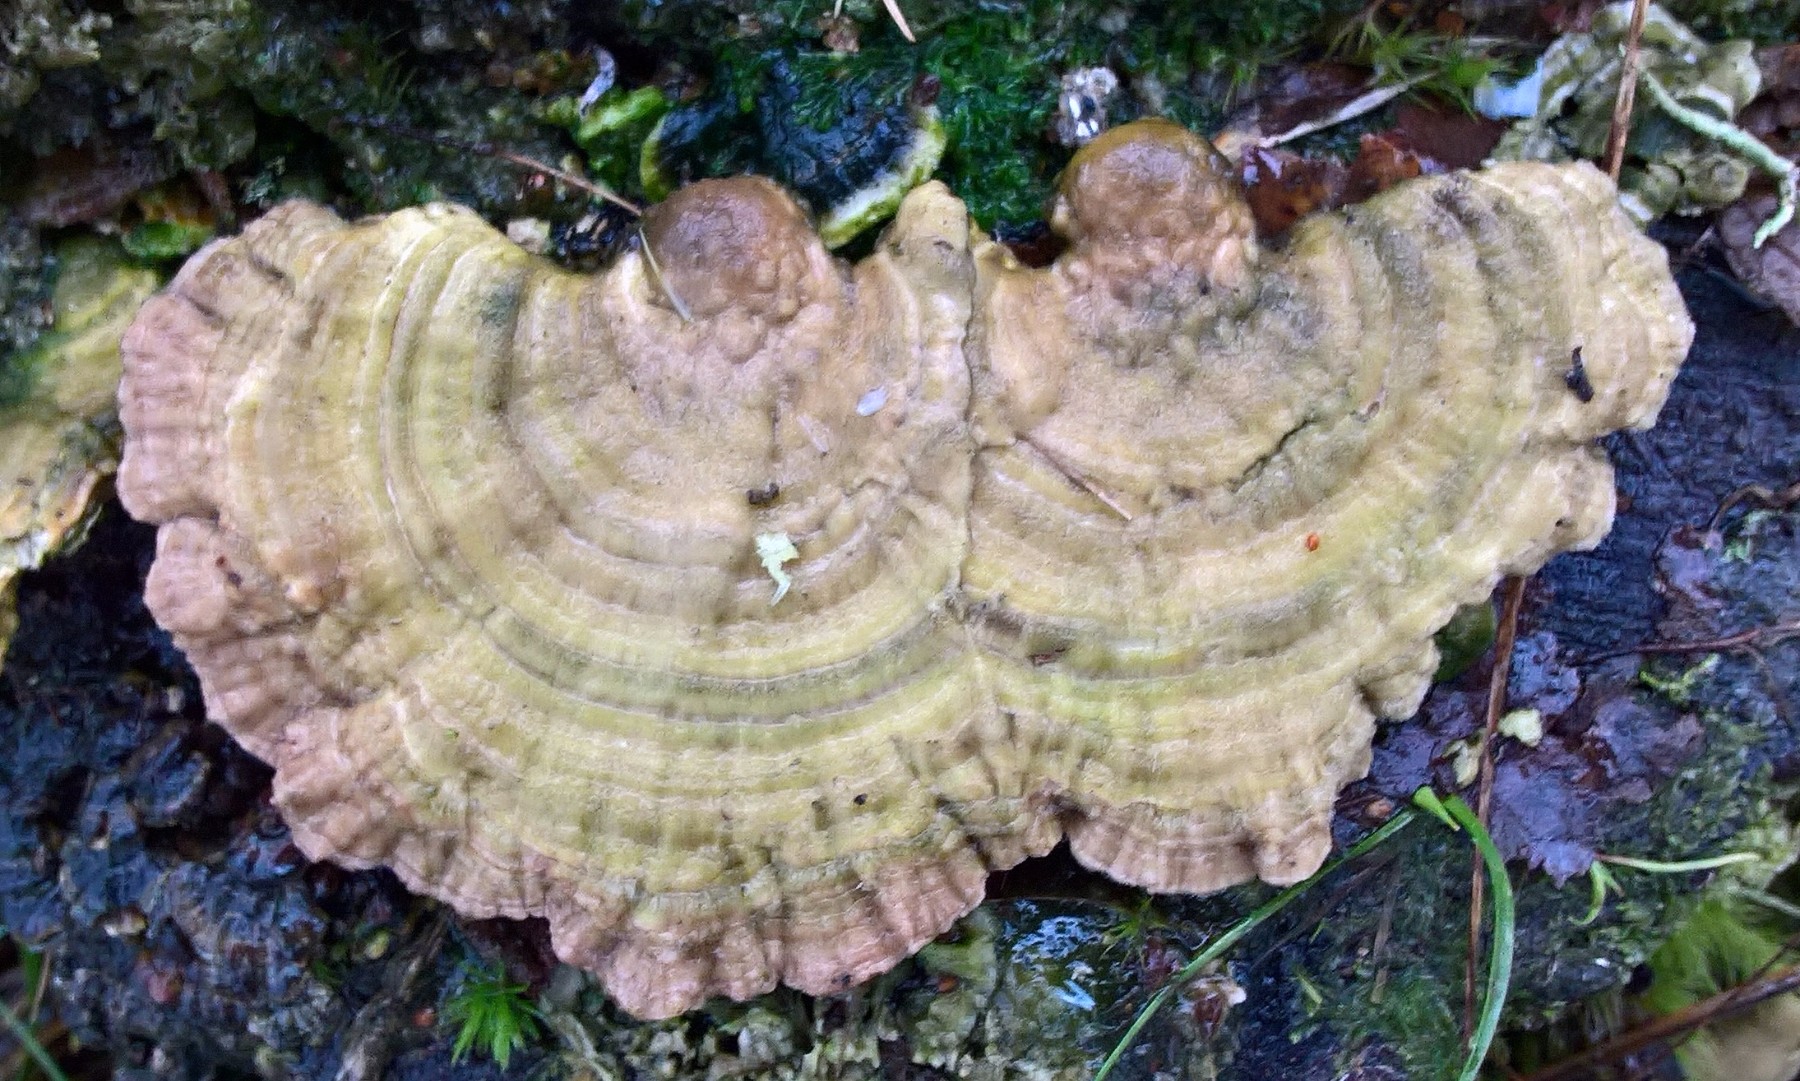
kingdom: Fungi
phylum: Basidiomycota
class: Agaricomycetes
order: Polyporales
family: Polyporaceae
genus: Lenzites
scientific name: Lenzites betulinus
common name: birke-læderporesvamp
